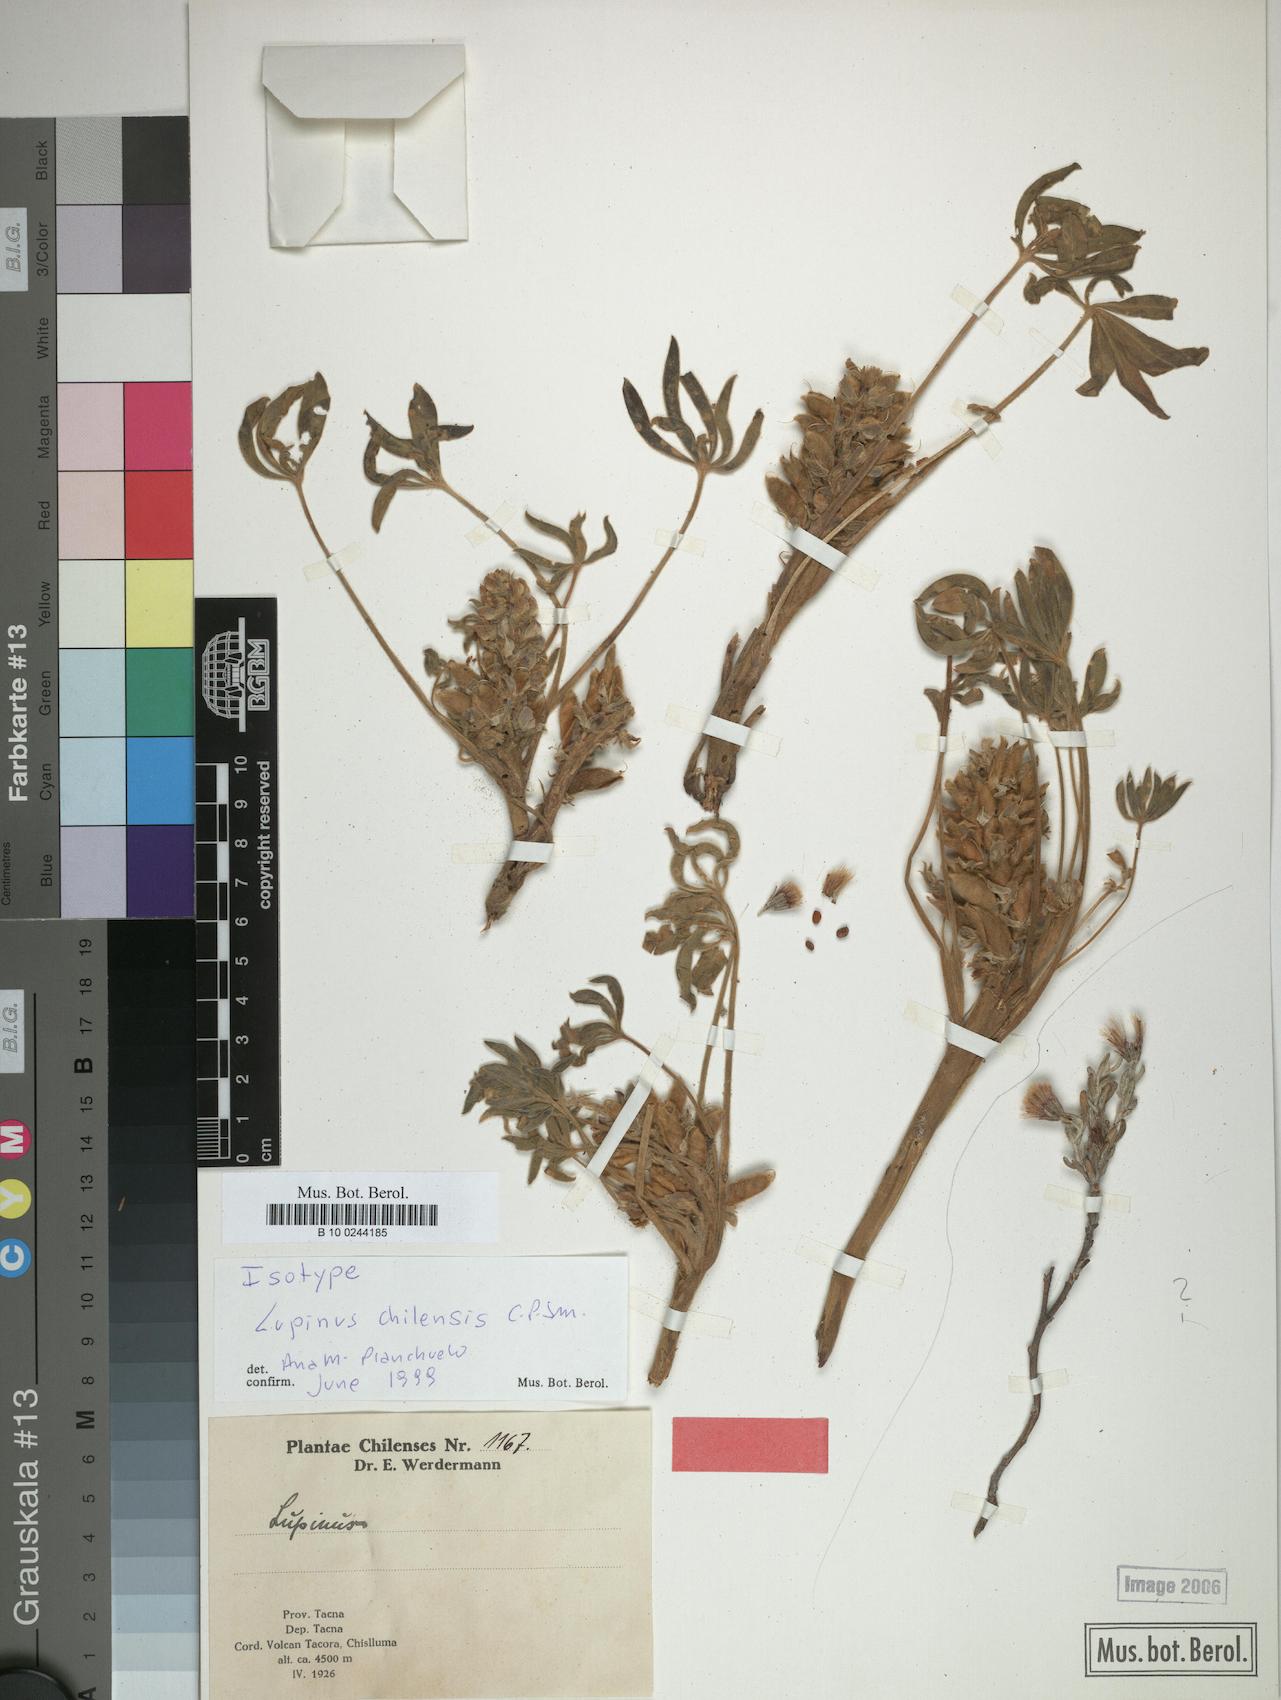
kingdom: Plantae
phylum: Tracheophyta
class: Magnoliopsida
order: Fabales
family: Fabaceae
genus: Lupinus
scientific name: Lupinus subacaulis
